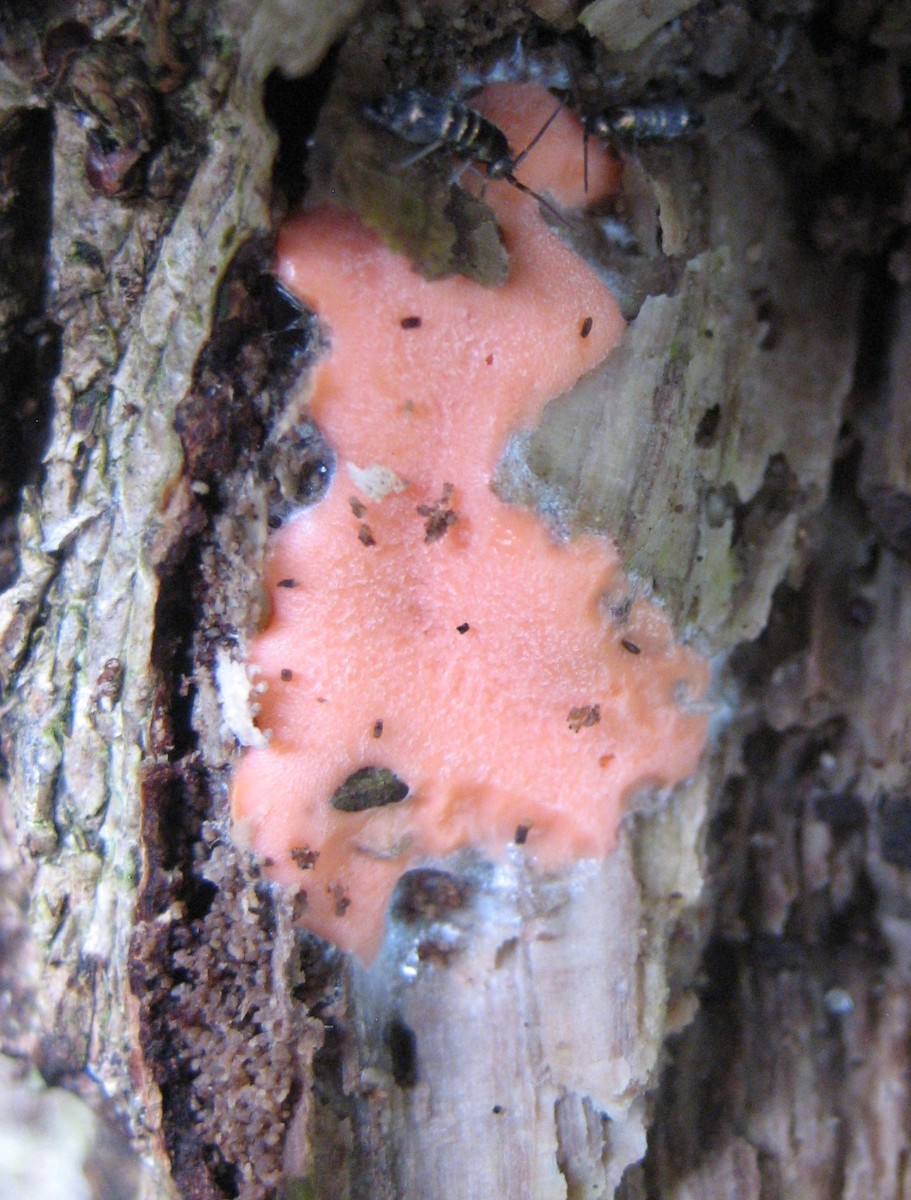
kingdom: Protozoa
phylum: Mycetozoa
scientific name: Mycetozoa
